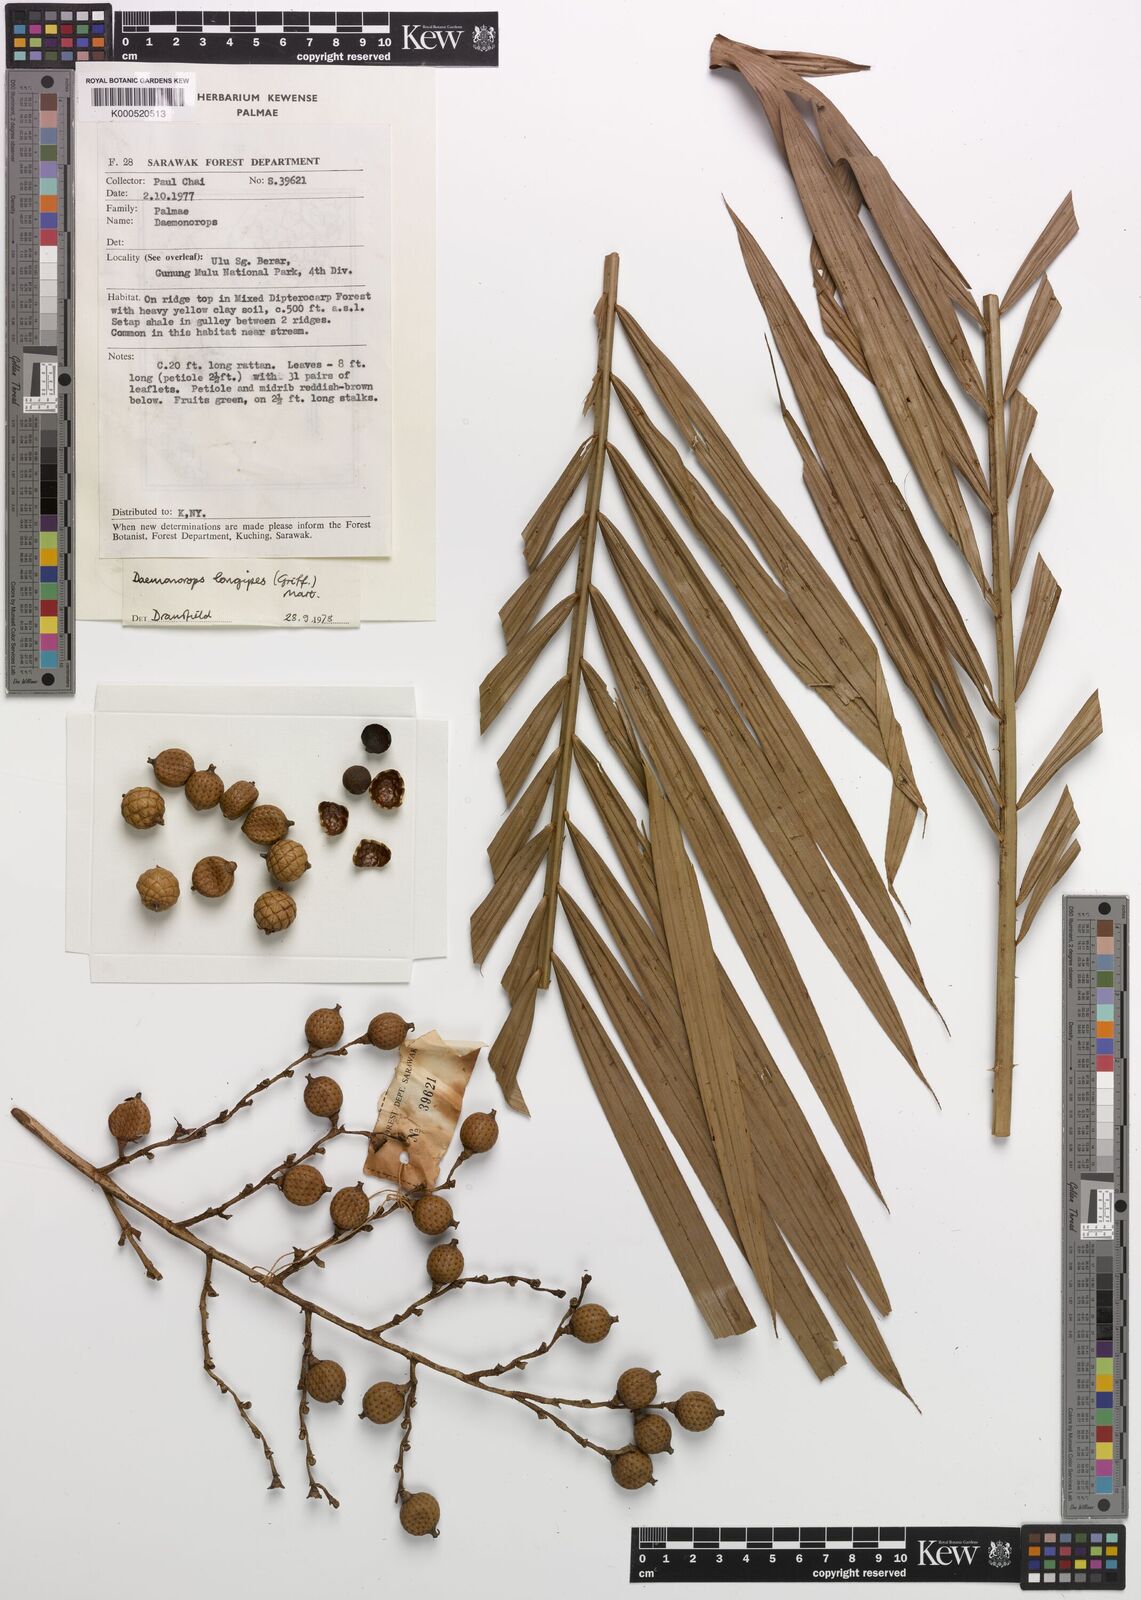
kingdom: Plantae
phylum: Tracheophyta
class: Liliopsida
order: Arecales
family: Arecaceae
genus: Calamus
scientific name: Calamus longipes
